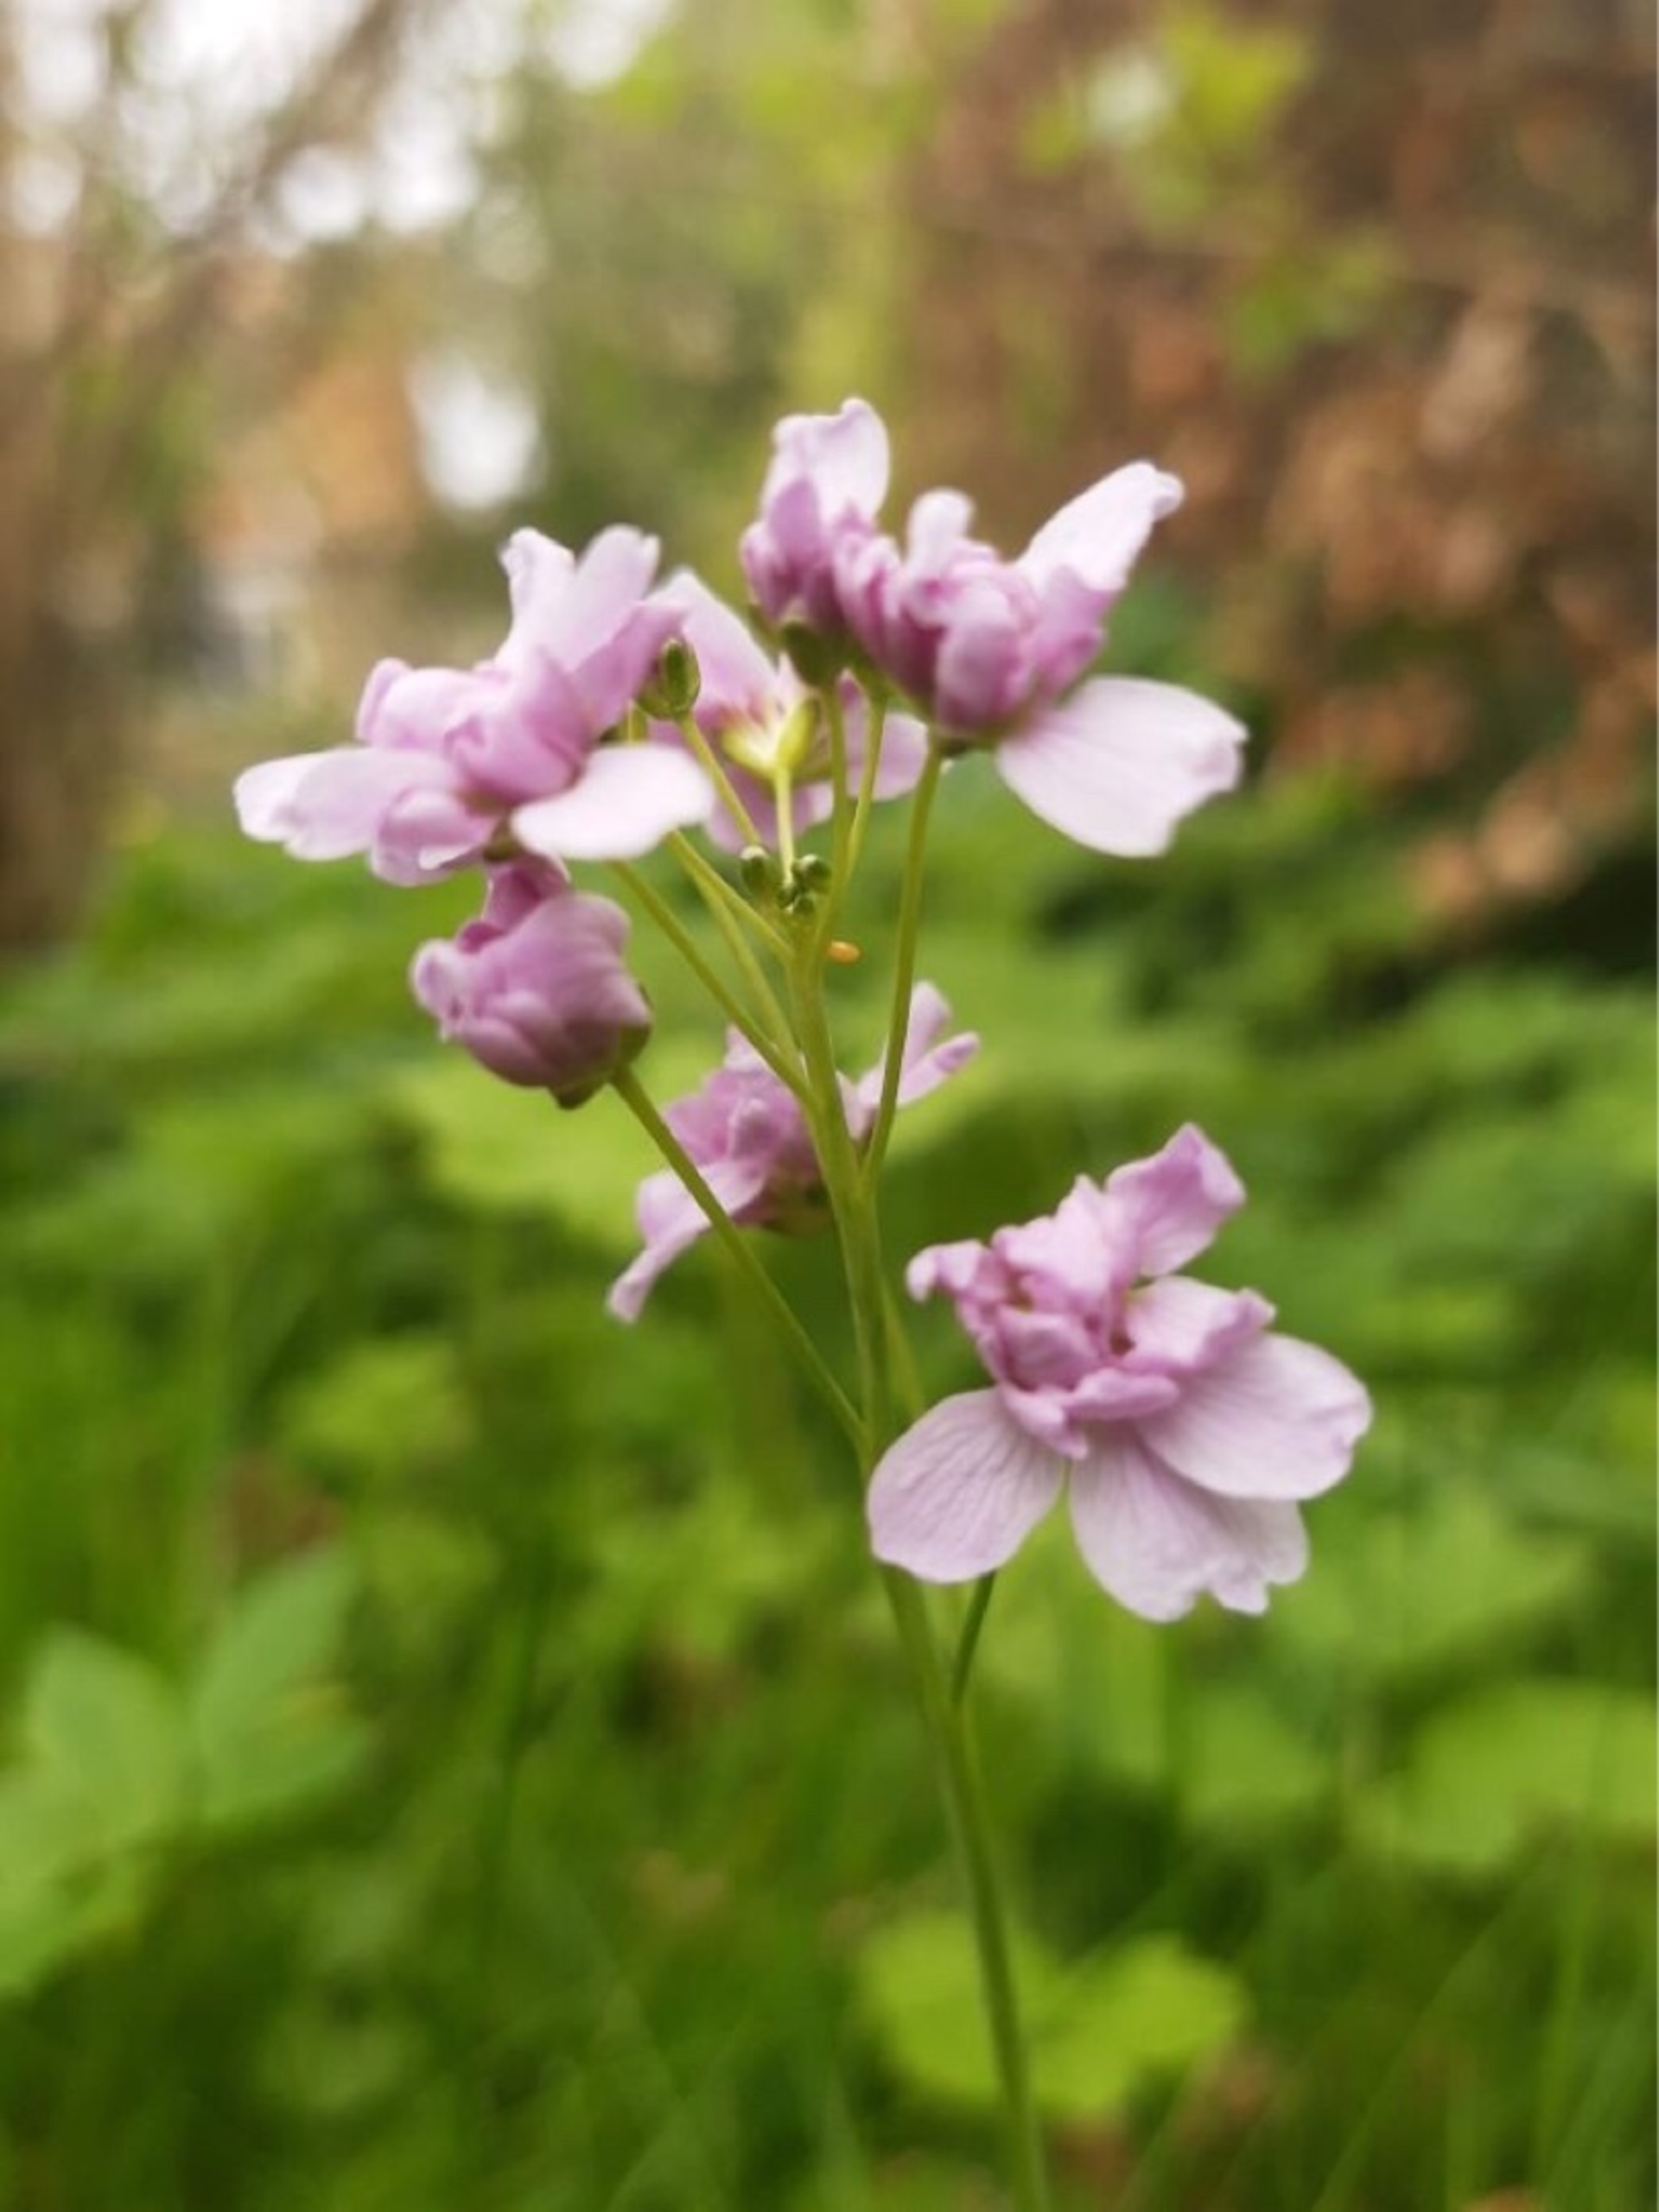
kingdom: Plantae
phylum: Tracheophyta
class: Magnoliopsida
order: Brassicales
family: Brassicaceae
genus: Cardamine
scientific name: Cardamine pratensis
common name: Engkarse
